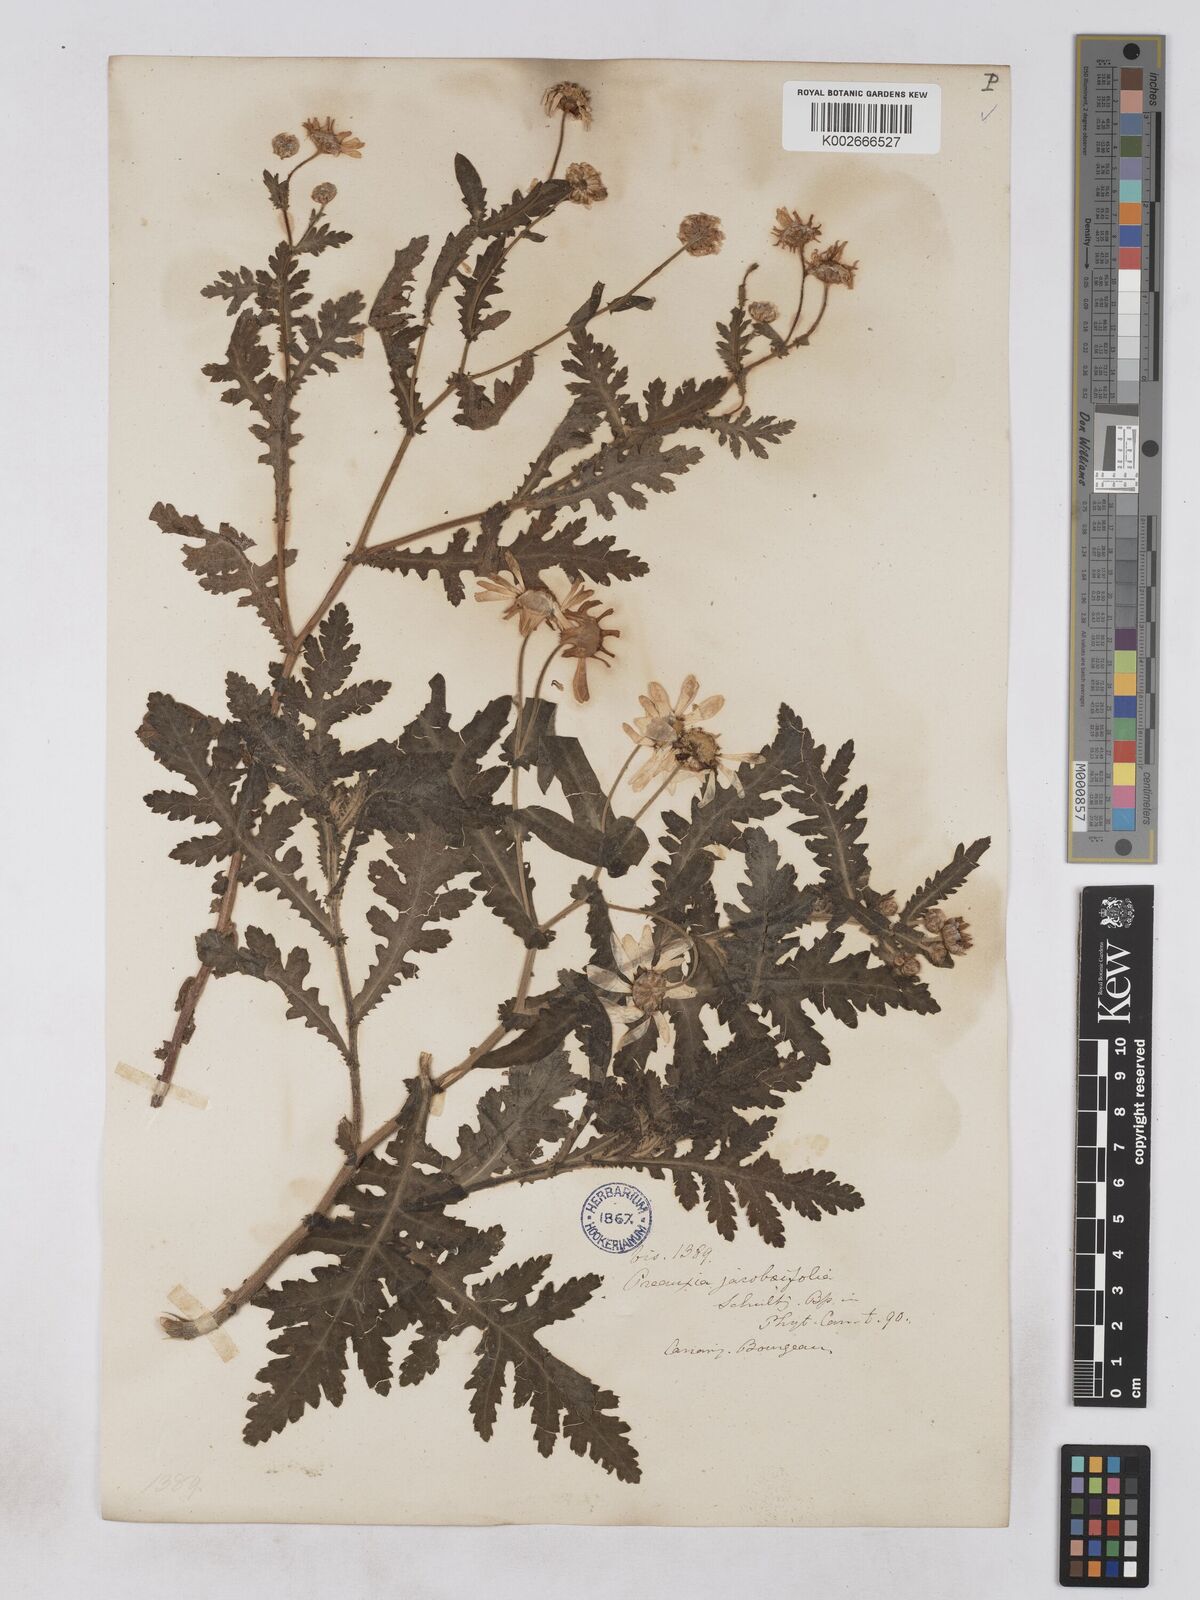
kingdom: Plantae
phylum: Tracheophyta
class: Magnoliopsida
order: Asterales
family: Asteraceae
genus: Argyranthemum
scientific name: Argyranthemum adauctum
